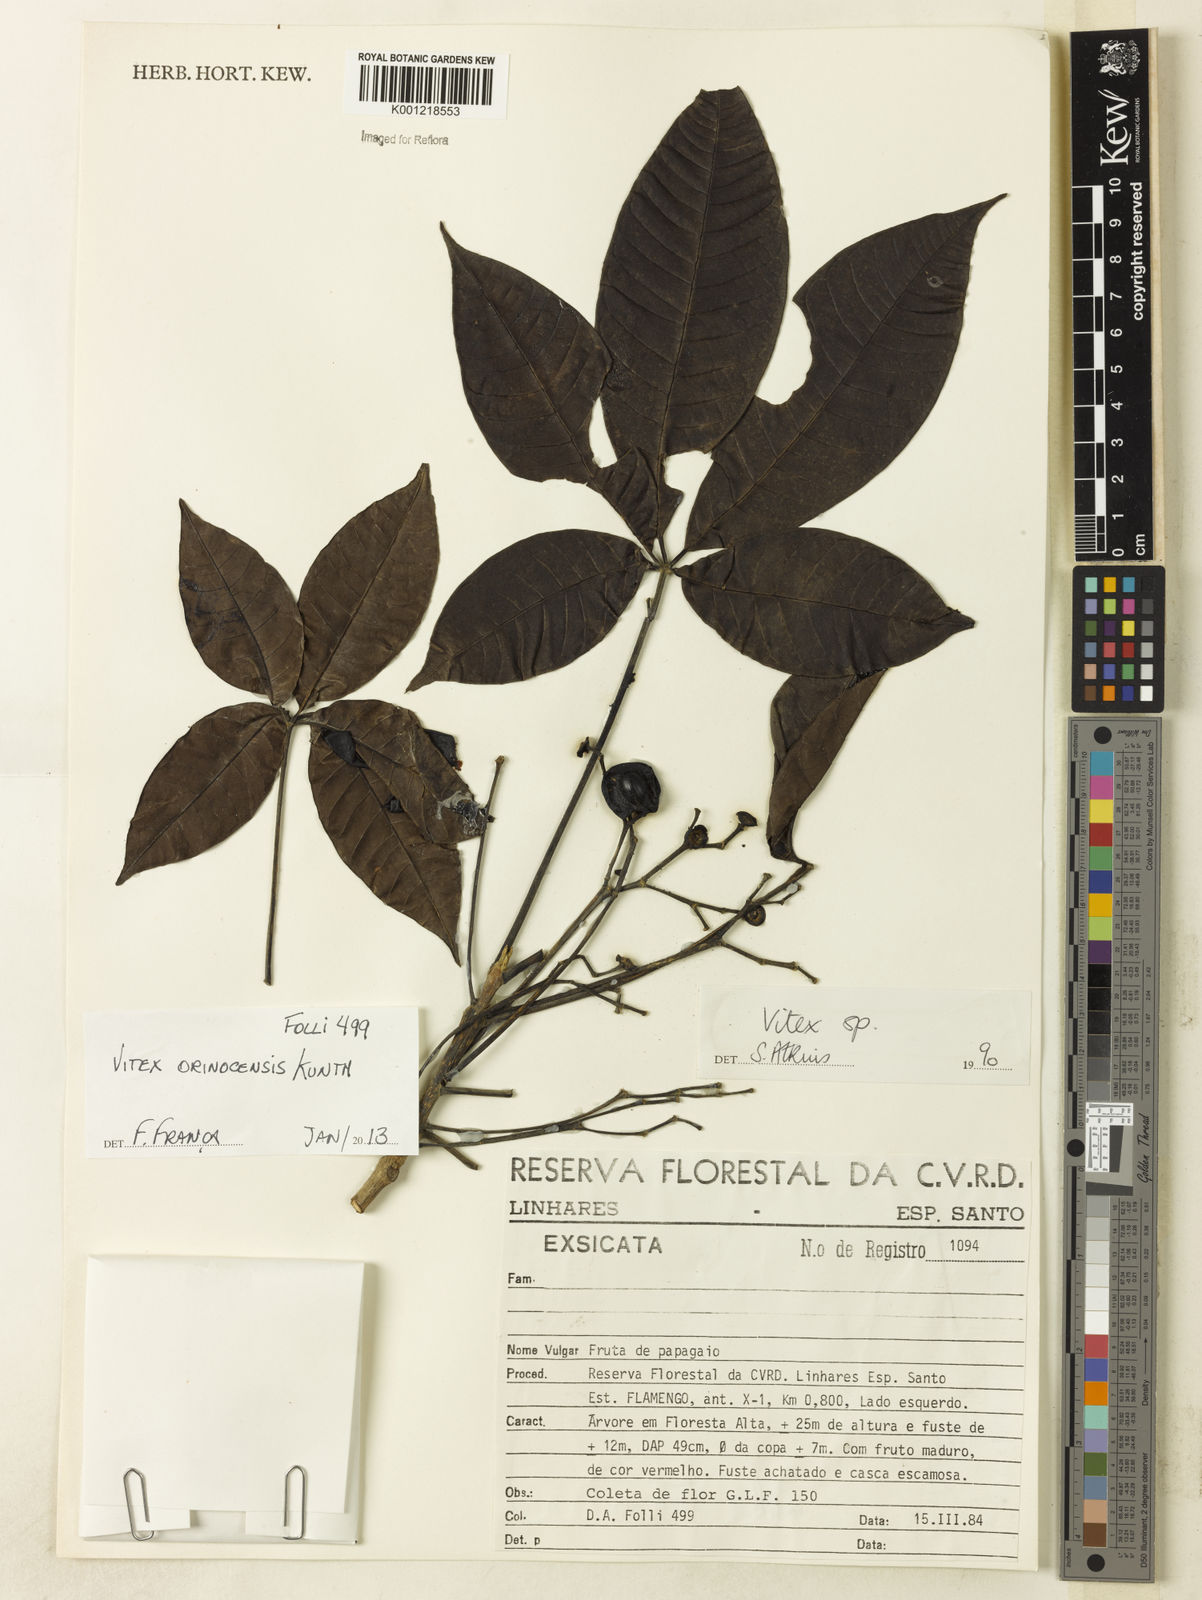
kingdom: Plantae
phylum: Tracheophyta
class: Magnoliopsida
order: Lamiales
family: Lamiaceae
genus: Vitex
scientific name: Vitex orinocensis
